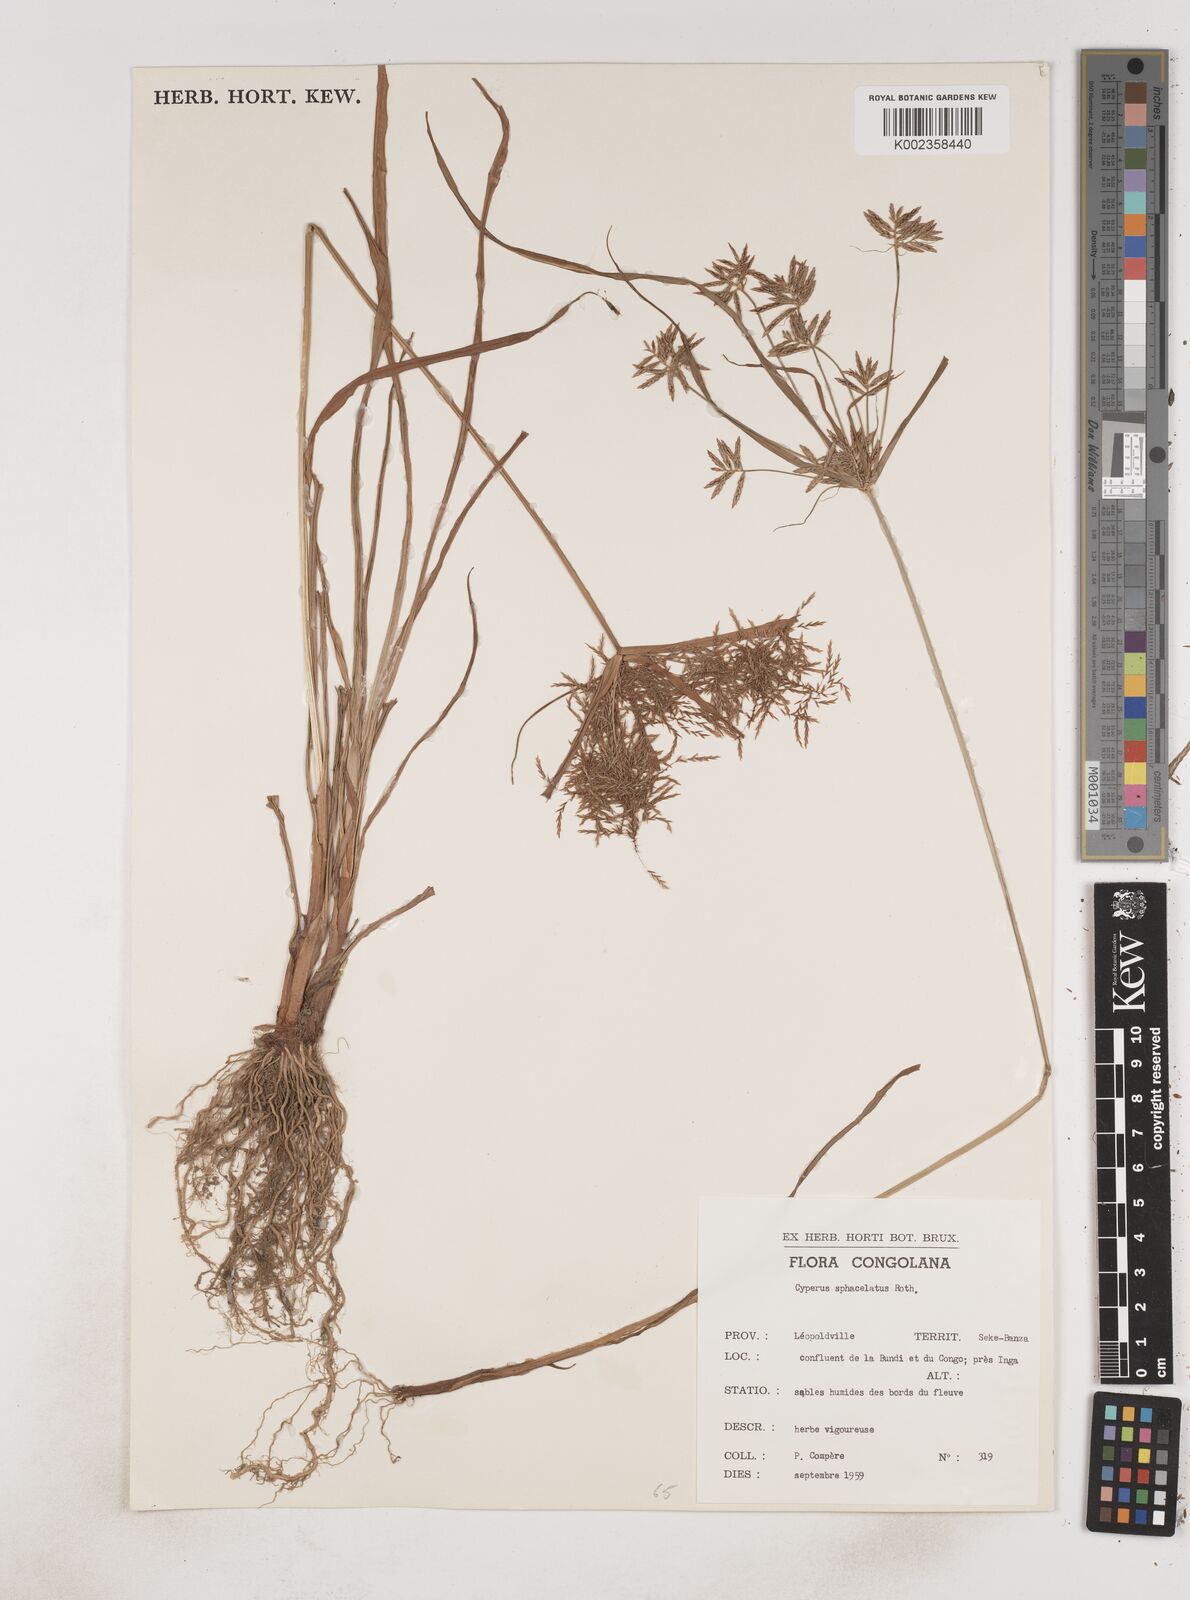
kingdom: Plantae
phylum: Tracheophyta
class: Liliopsida
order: Poales
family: Cyperaceae
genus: Cyperus
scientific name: Cyperus sphacelatus
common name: Roadside flatsedge
